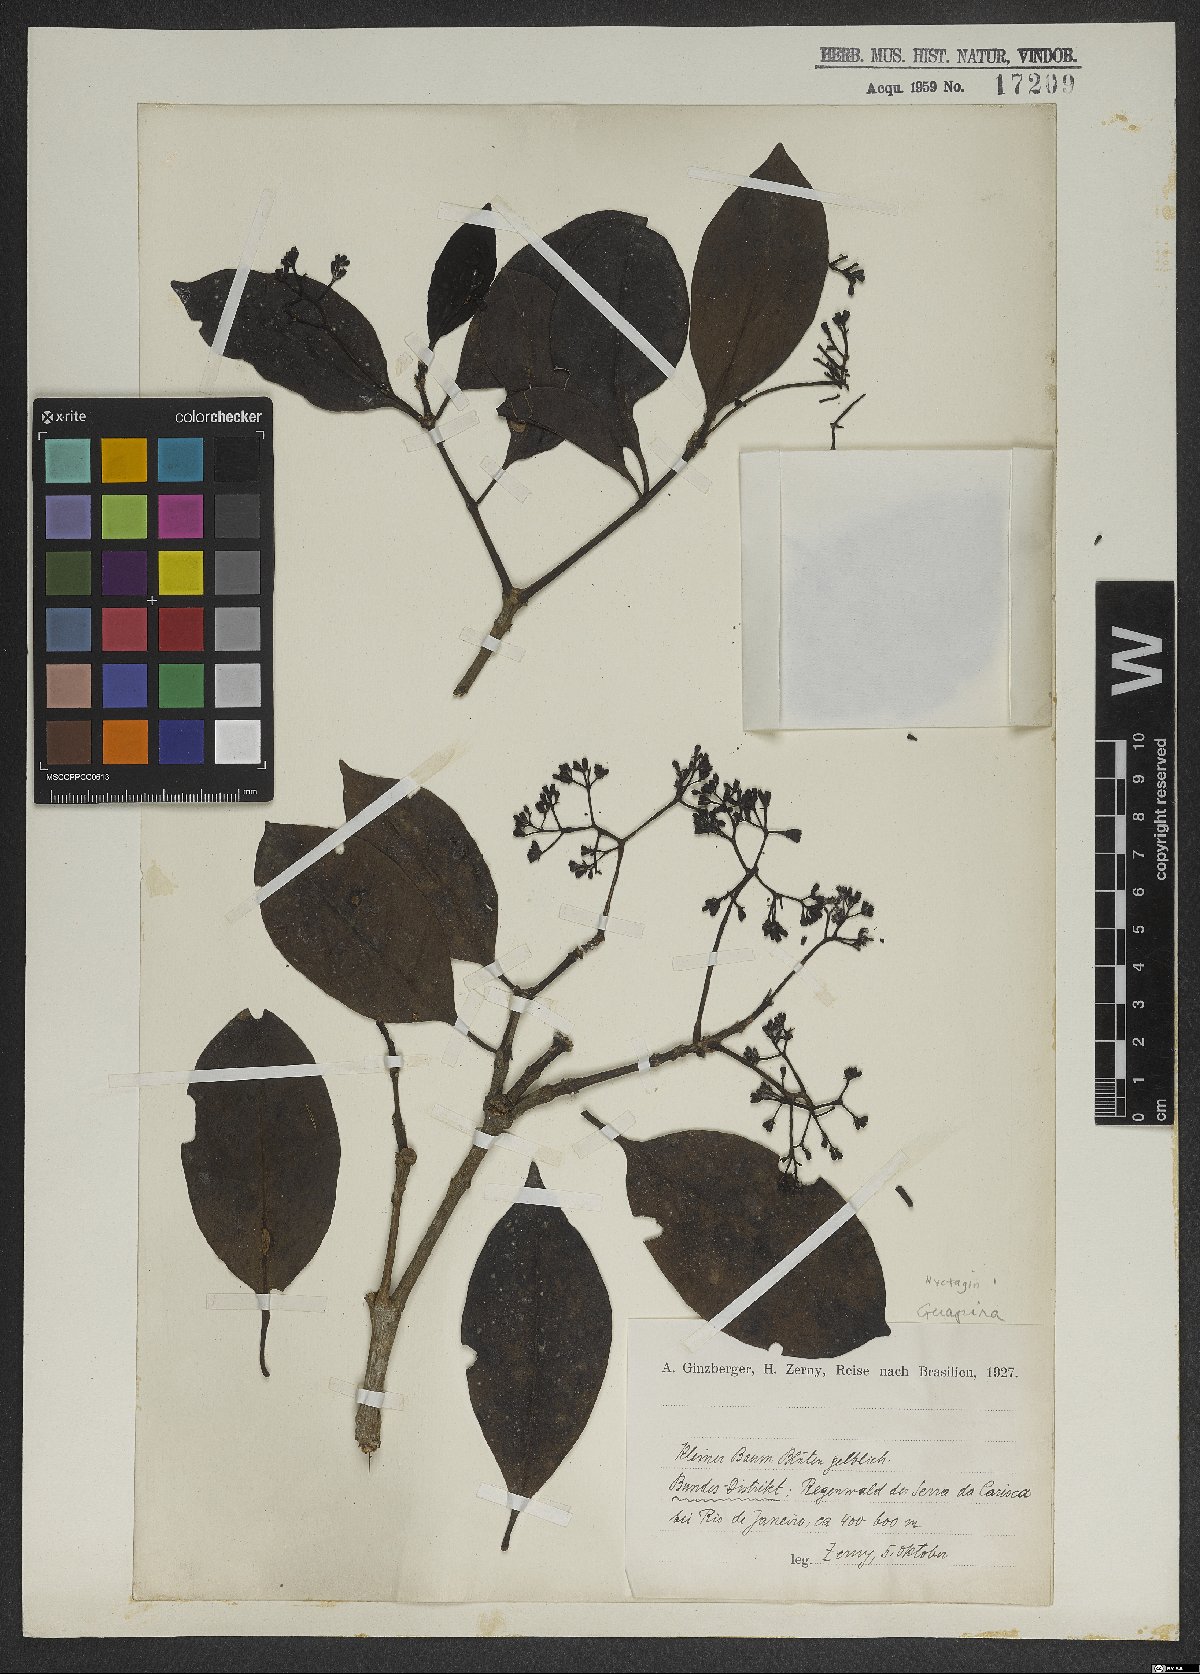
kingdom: Plantae
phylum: Tracheophyta
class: Magnoliopsida
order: Caryophyllales
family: Nyctaginaceae
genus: Guapira
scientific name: Guapira
